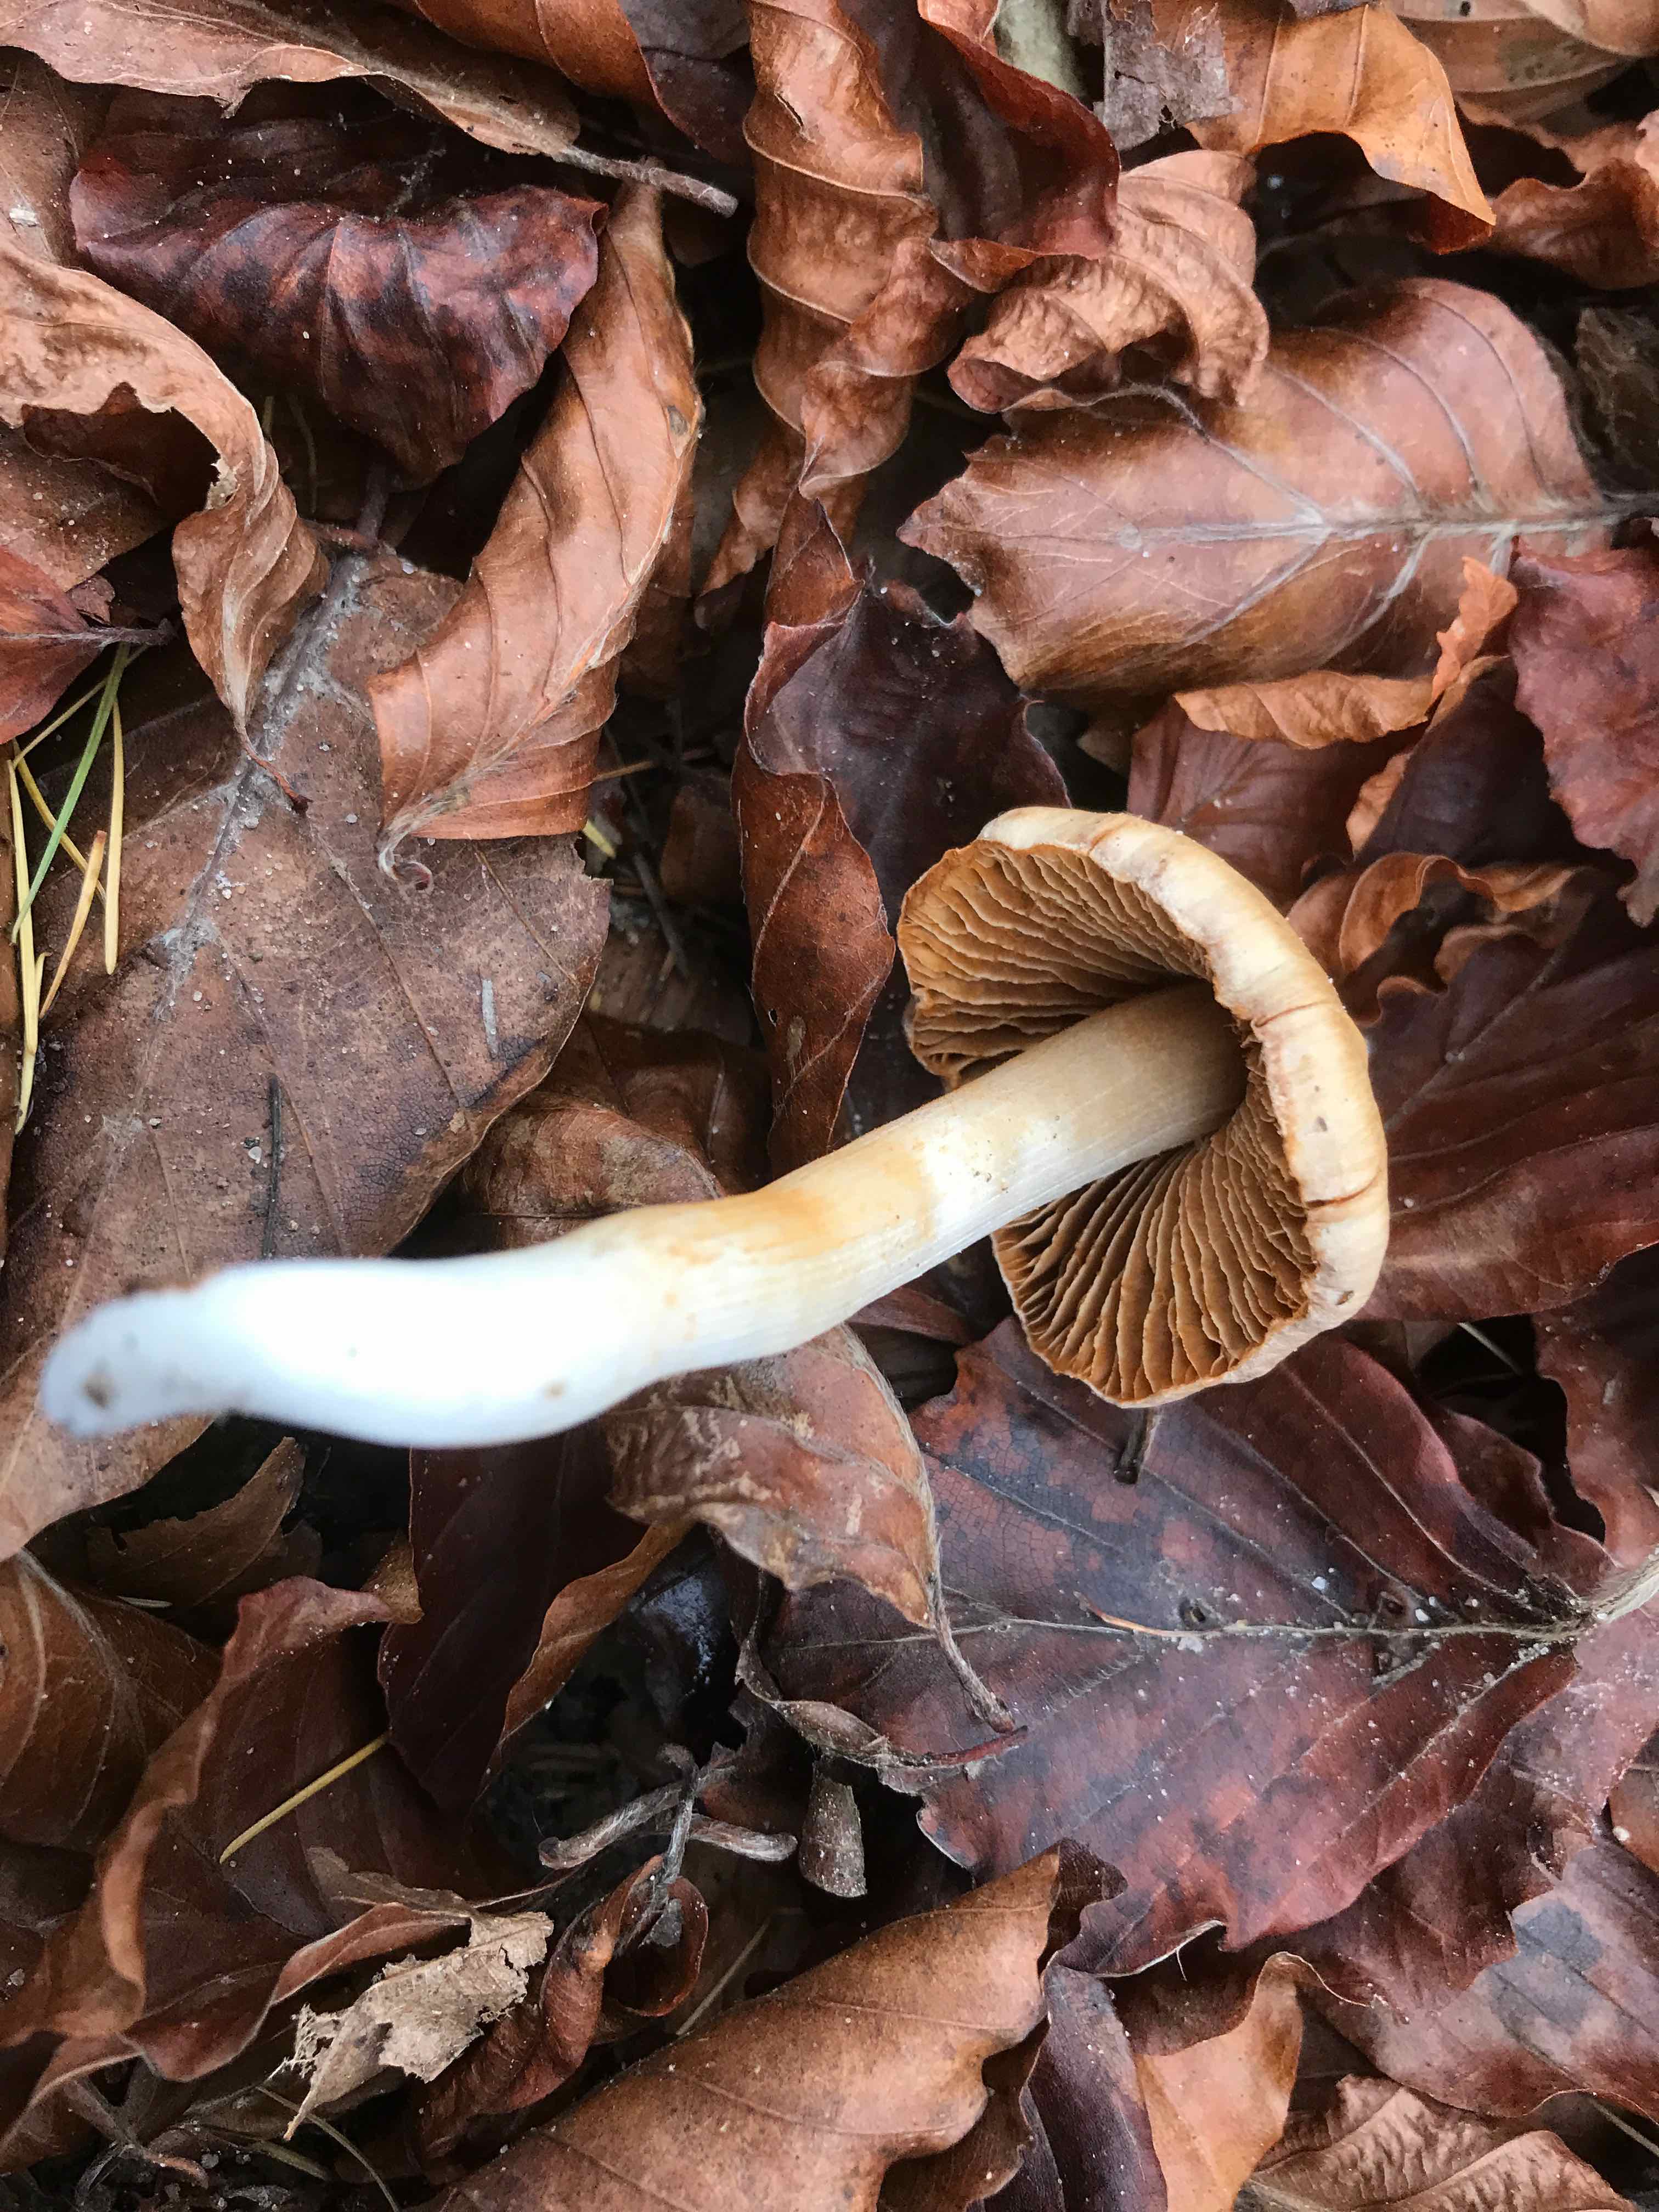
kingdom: Fungi
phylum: Basidiomycota
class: Agaricomycetes
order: Agaricales
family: Cortinariaceae
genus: Cortinarius
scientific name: Cortinarius
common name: jod-slørhat
